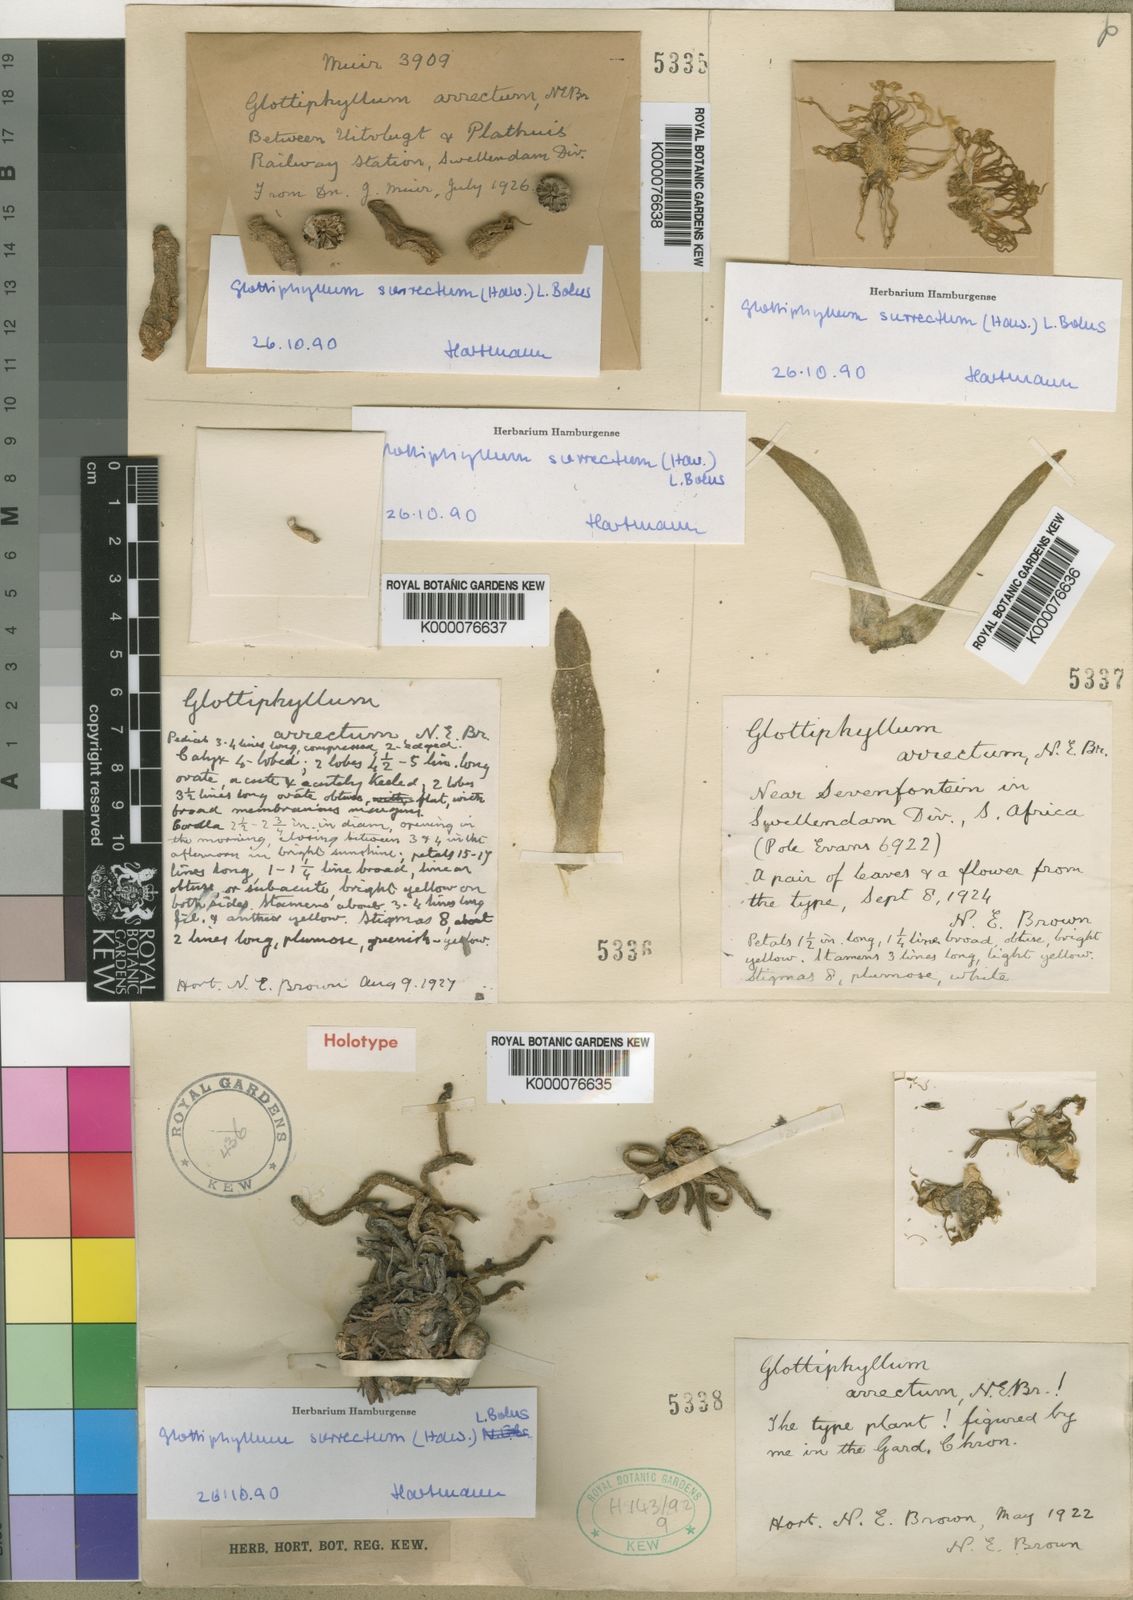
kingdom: Plantae
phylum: Tracheophyta
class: Magnoliopsida
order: Caryophyllales
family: Aizoaceae
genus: Glottiphyllum
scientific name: Glottiphyllum surrectum
